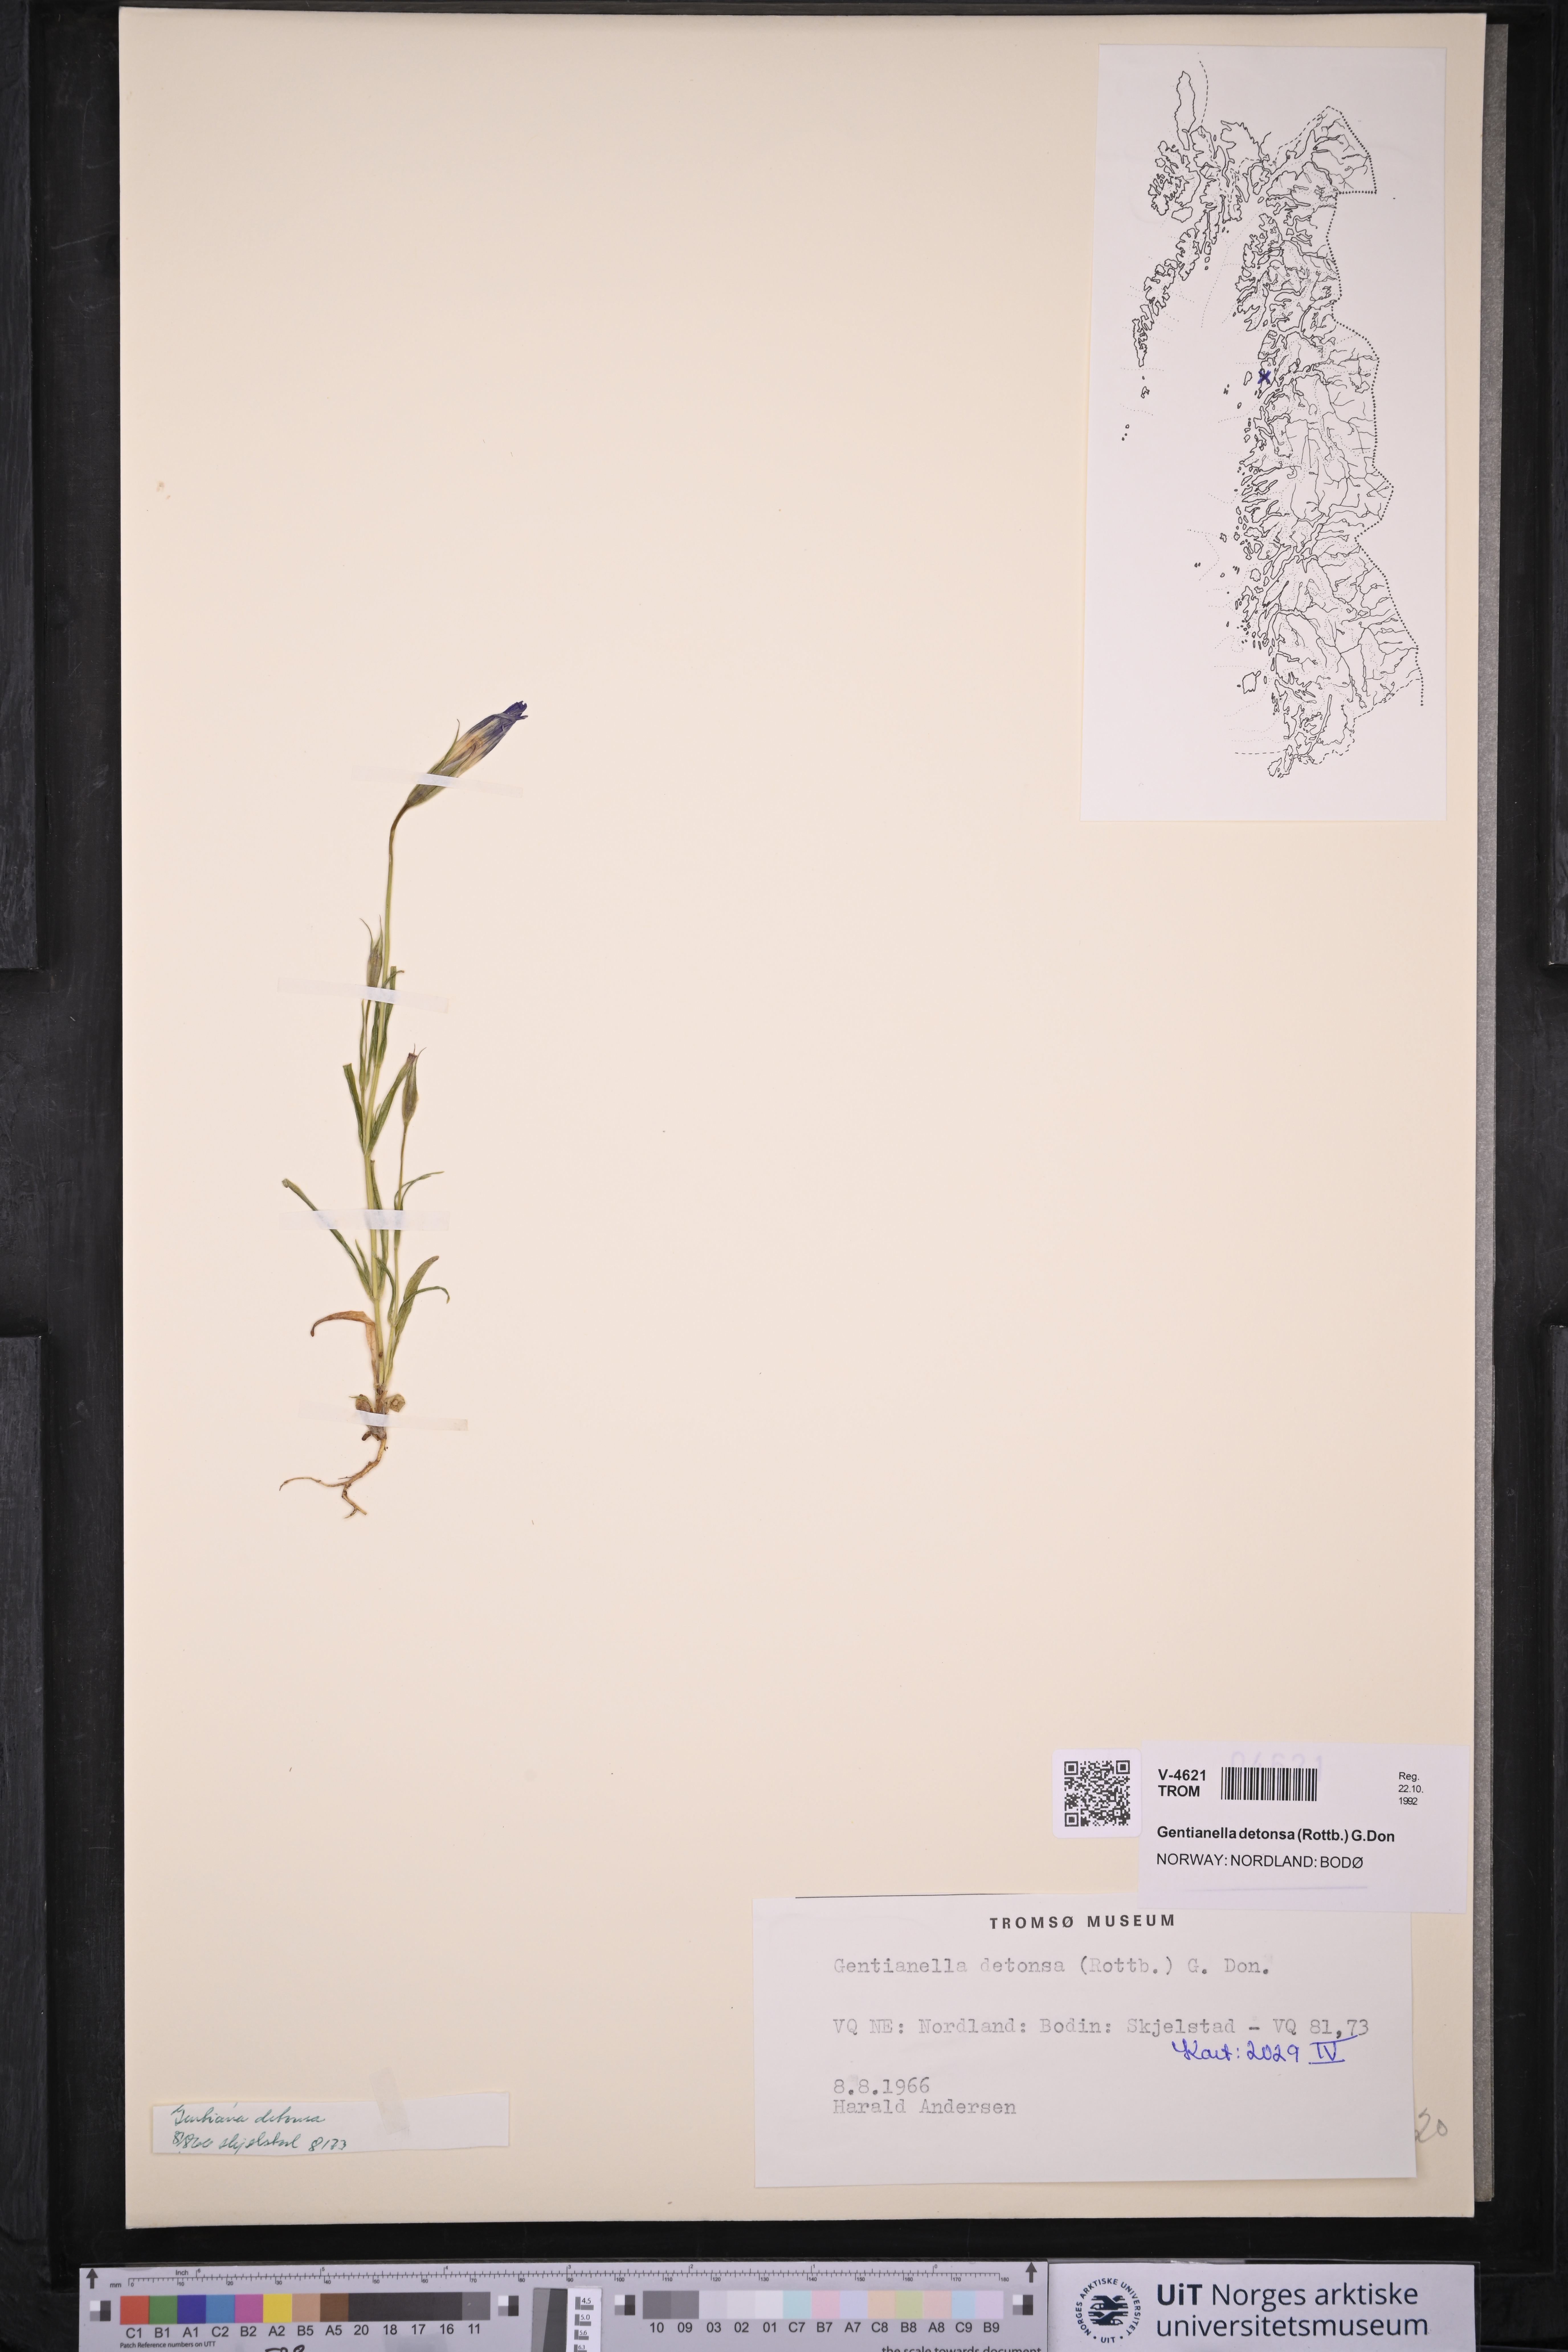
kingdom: Plantae
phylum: Tracheophyta
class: Magnoliopsida
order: Gentianales
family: Gentianaceae
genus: Gentianopsis
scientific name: Gentianopsis detonsa
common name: Fringed-gentian
